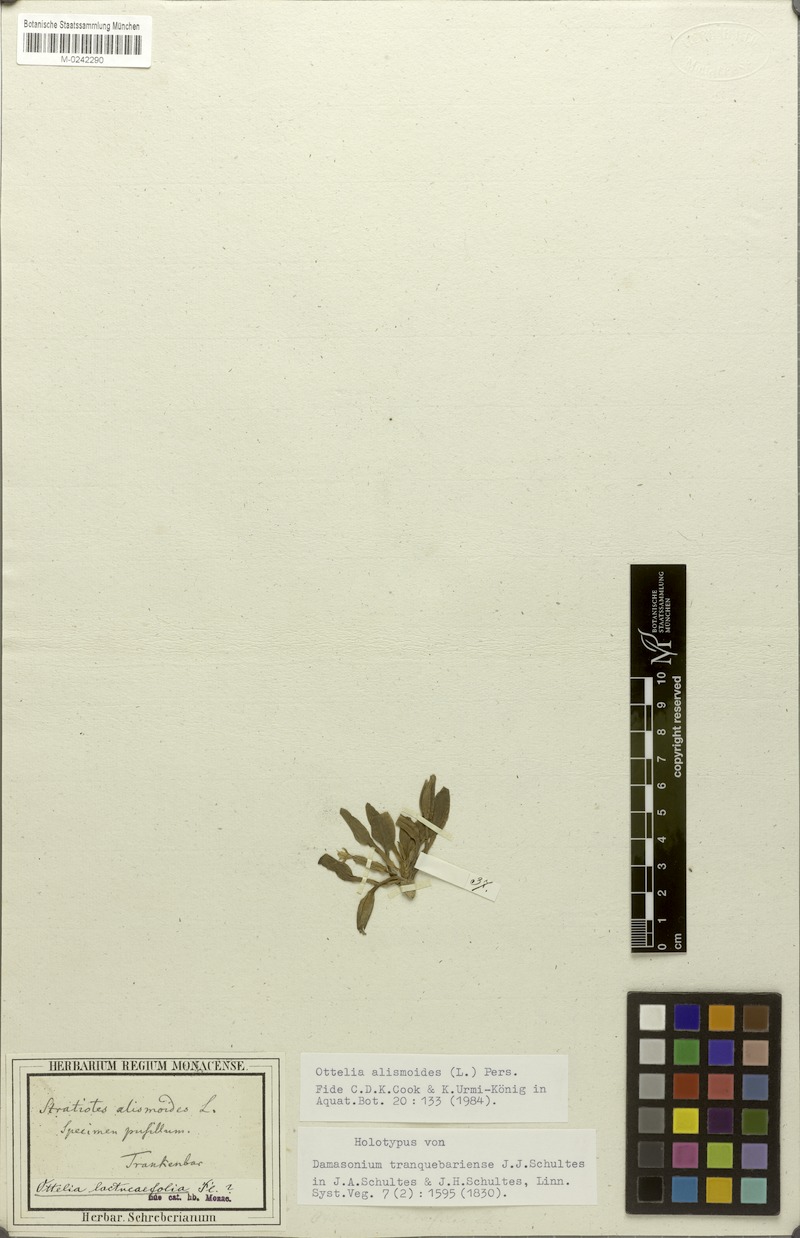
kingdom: Plantae
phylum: Tracheophyta
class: Liliopsida
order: Alismatales
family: Hydrocharitaceae
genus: Ottelia
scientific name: Ottelia alismoides
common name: Duck-lettuce
